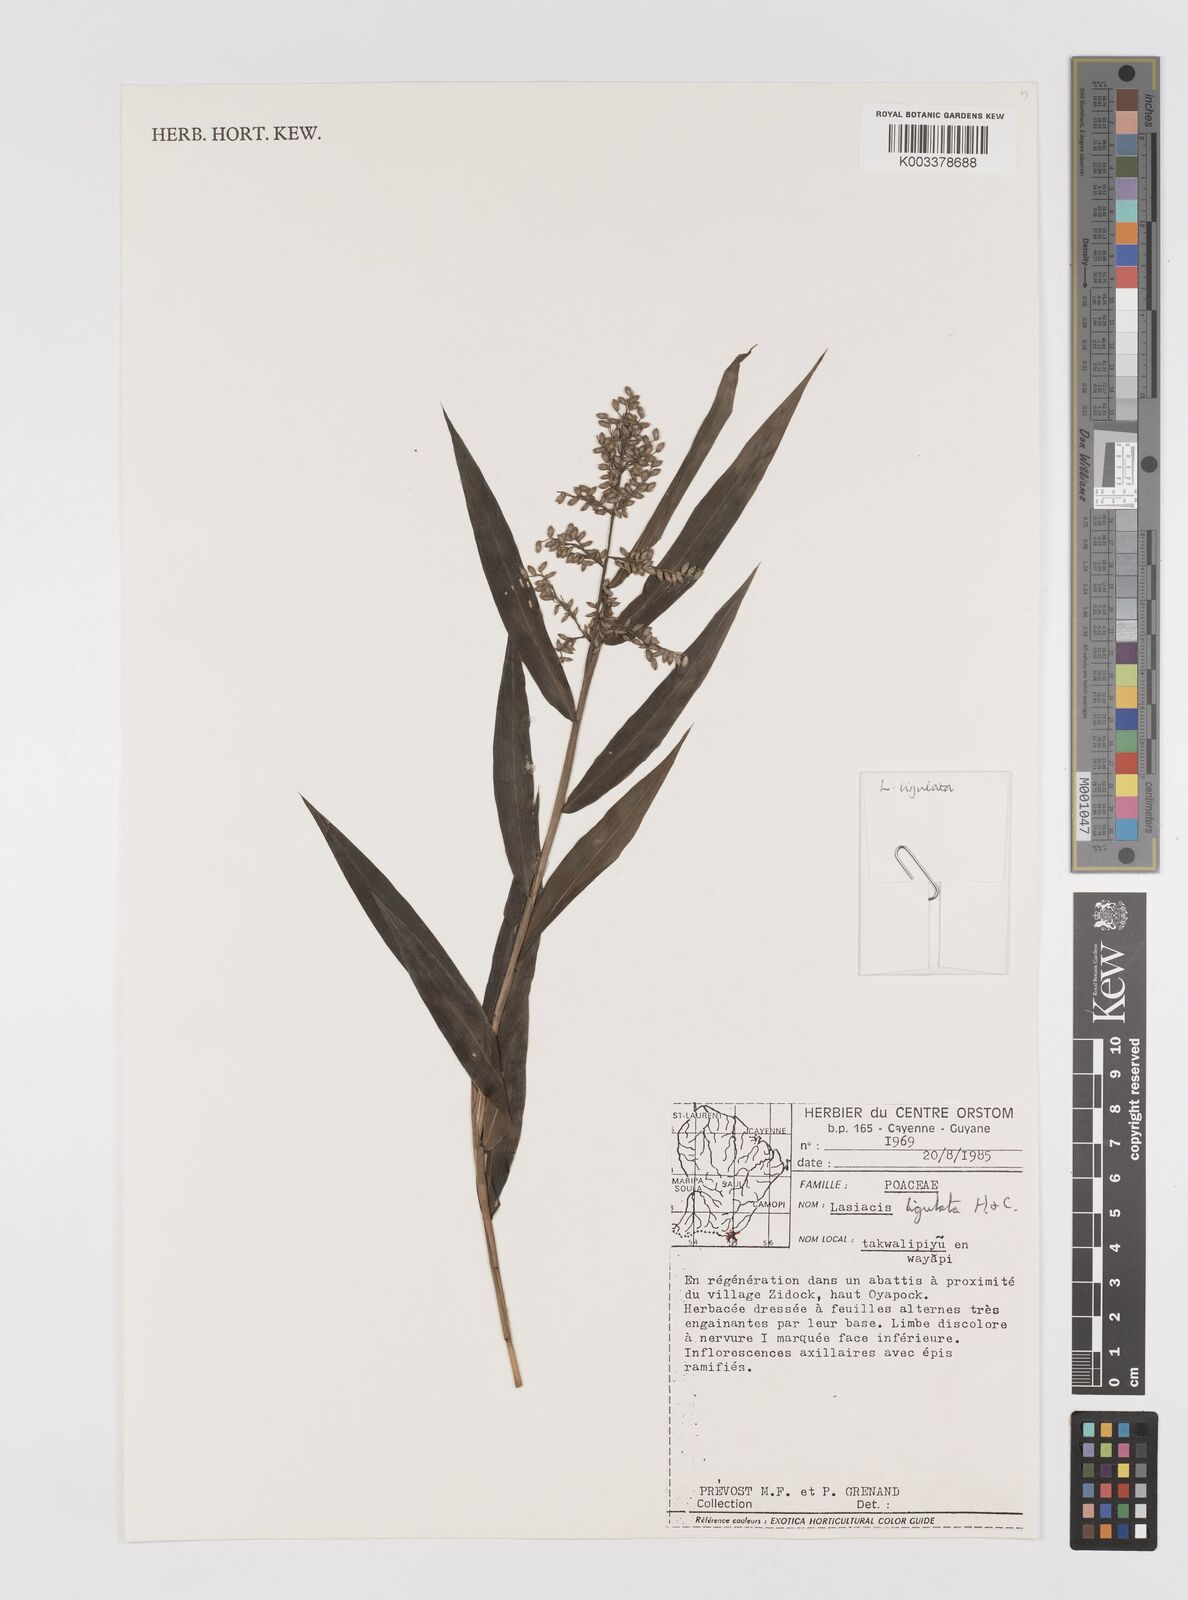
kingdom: Plantae
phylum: Tracheophyta
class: Liliopsida
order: Poales
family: Poaceae
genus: Lasiacis
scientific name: Lasiacis ligulata
